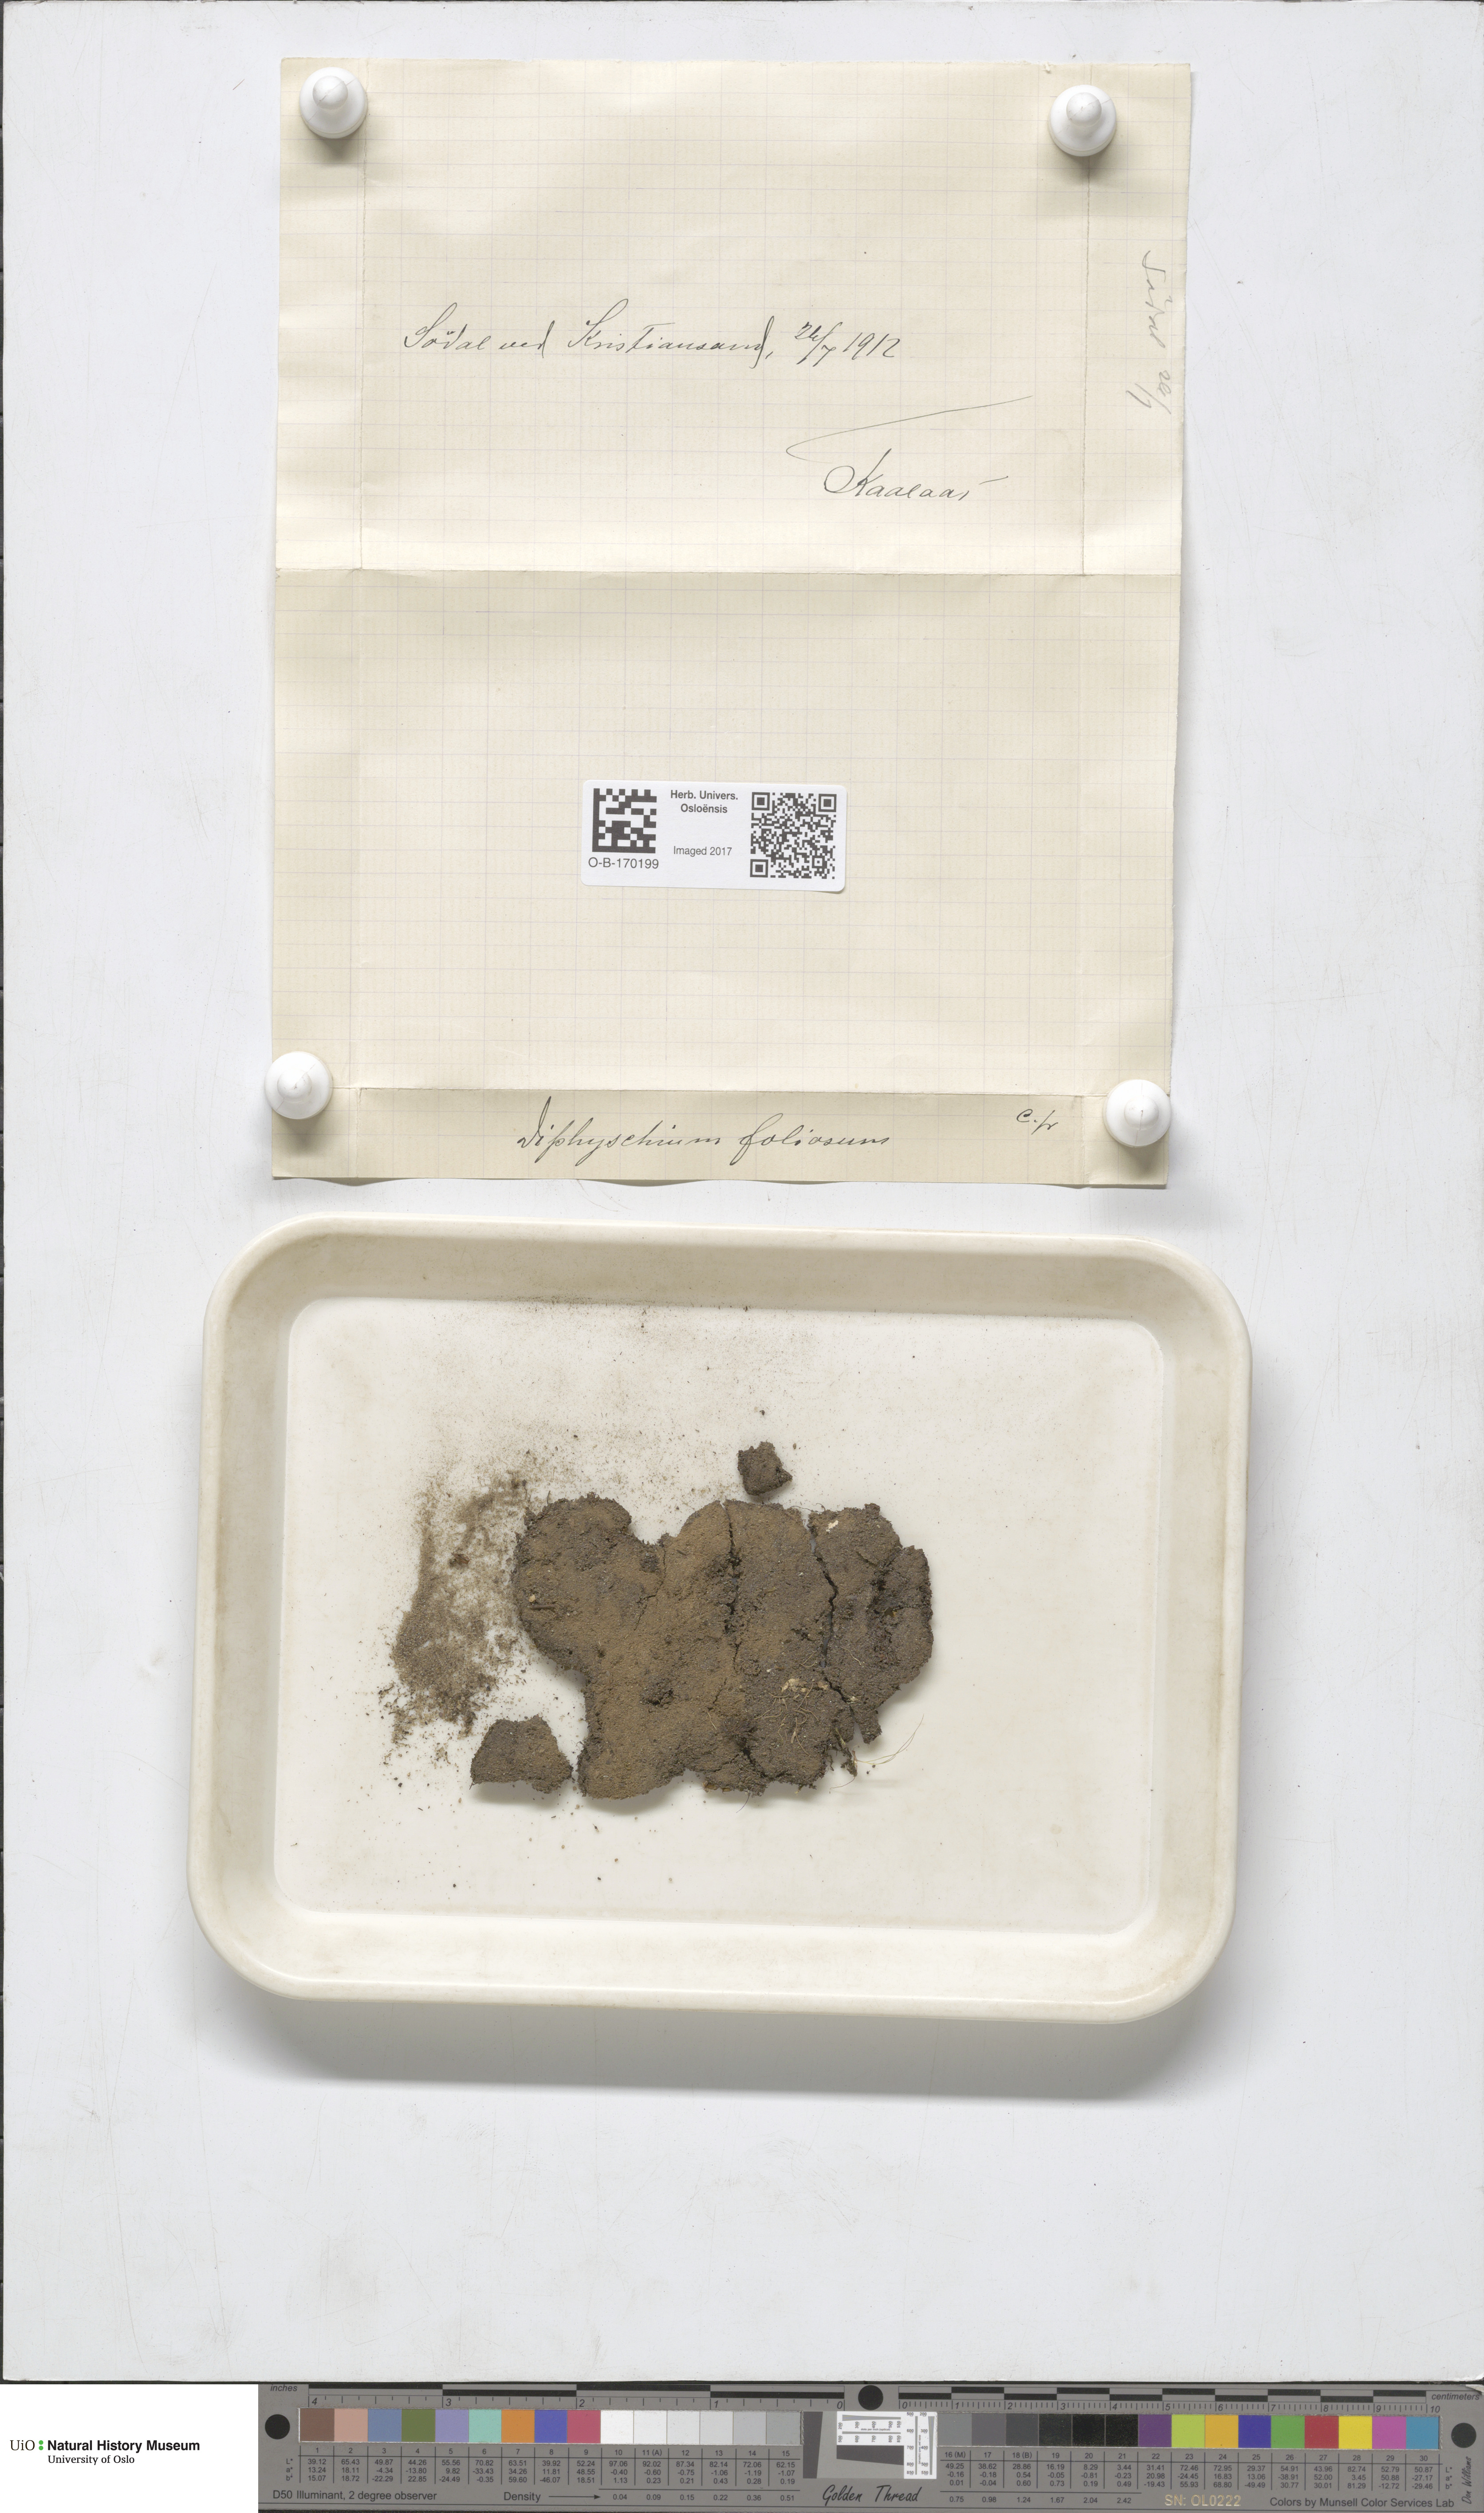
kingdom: Plantae
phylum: Bryophyta
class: Bryopsida
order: Diphysciales
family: Diphysciaceae
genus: Diphyscium
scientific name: Diphyscium foliosum
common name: Nut moss
